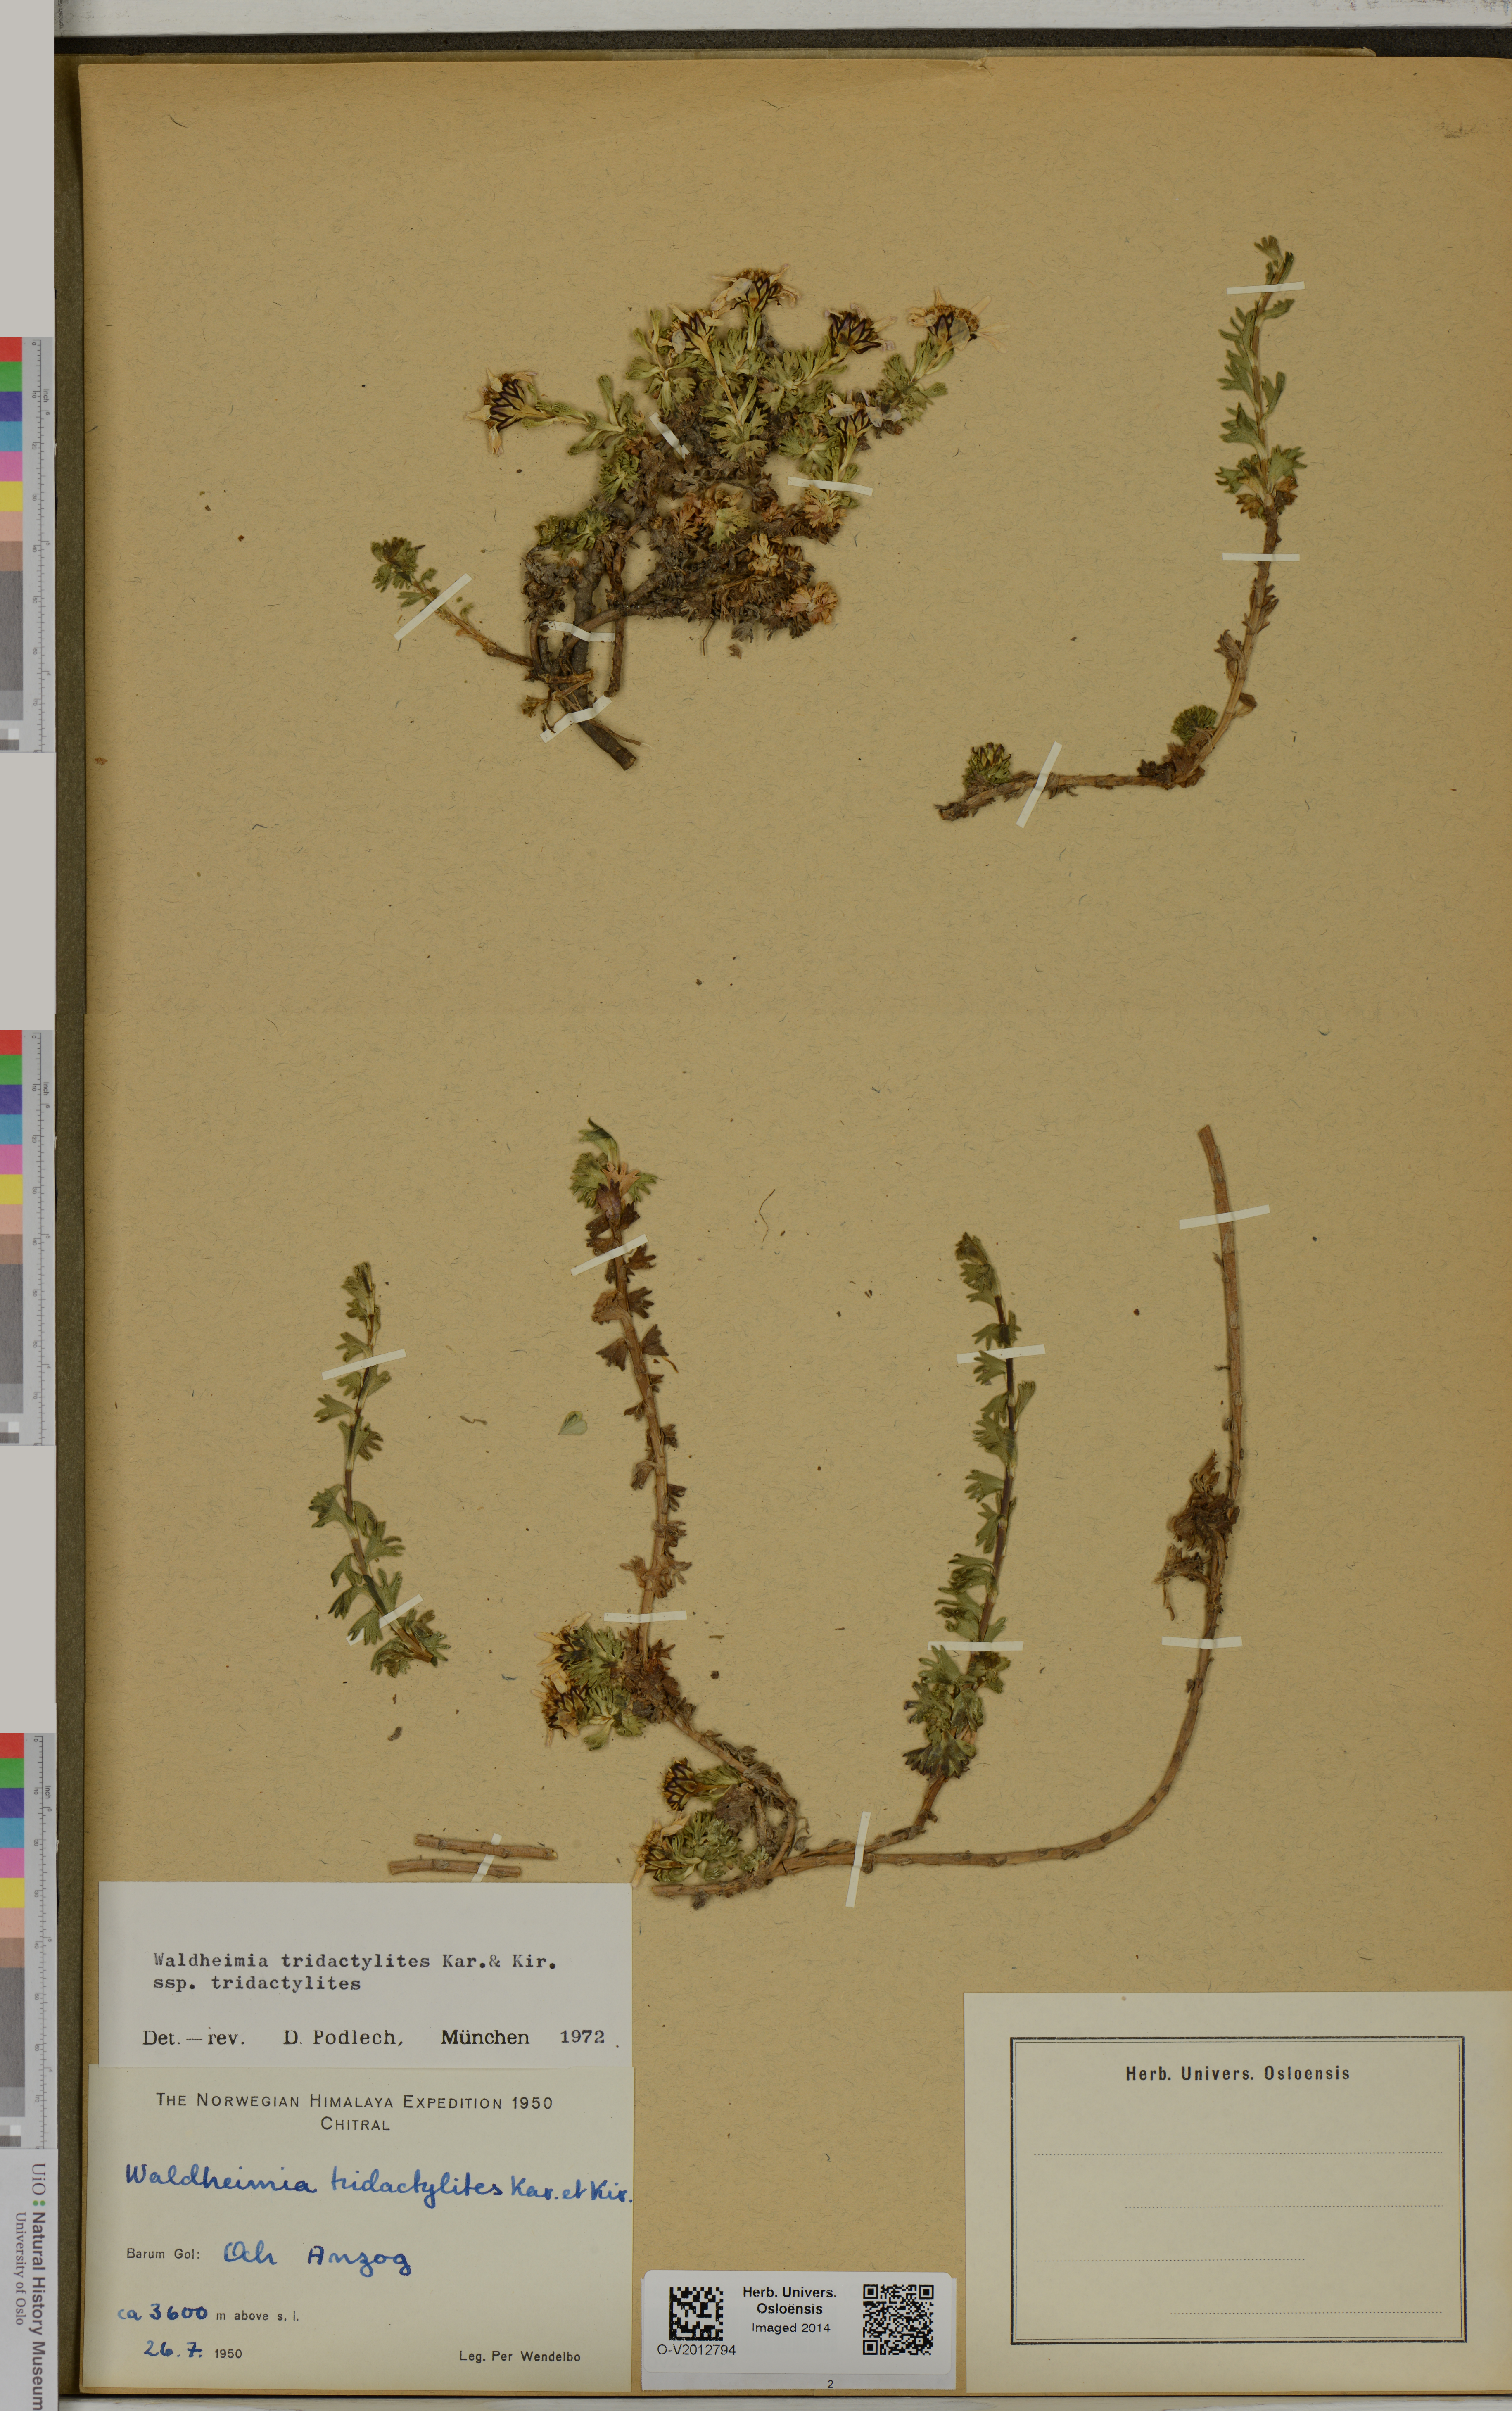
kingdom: Plantae
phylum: Tracheophyta
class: Magnoliopsida
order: Asterales
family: Asteraceae
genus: Allardia
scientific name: Allardia tridactylites
